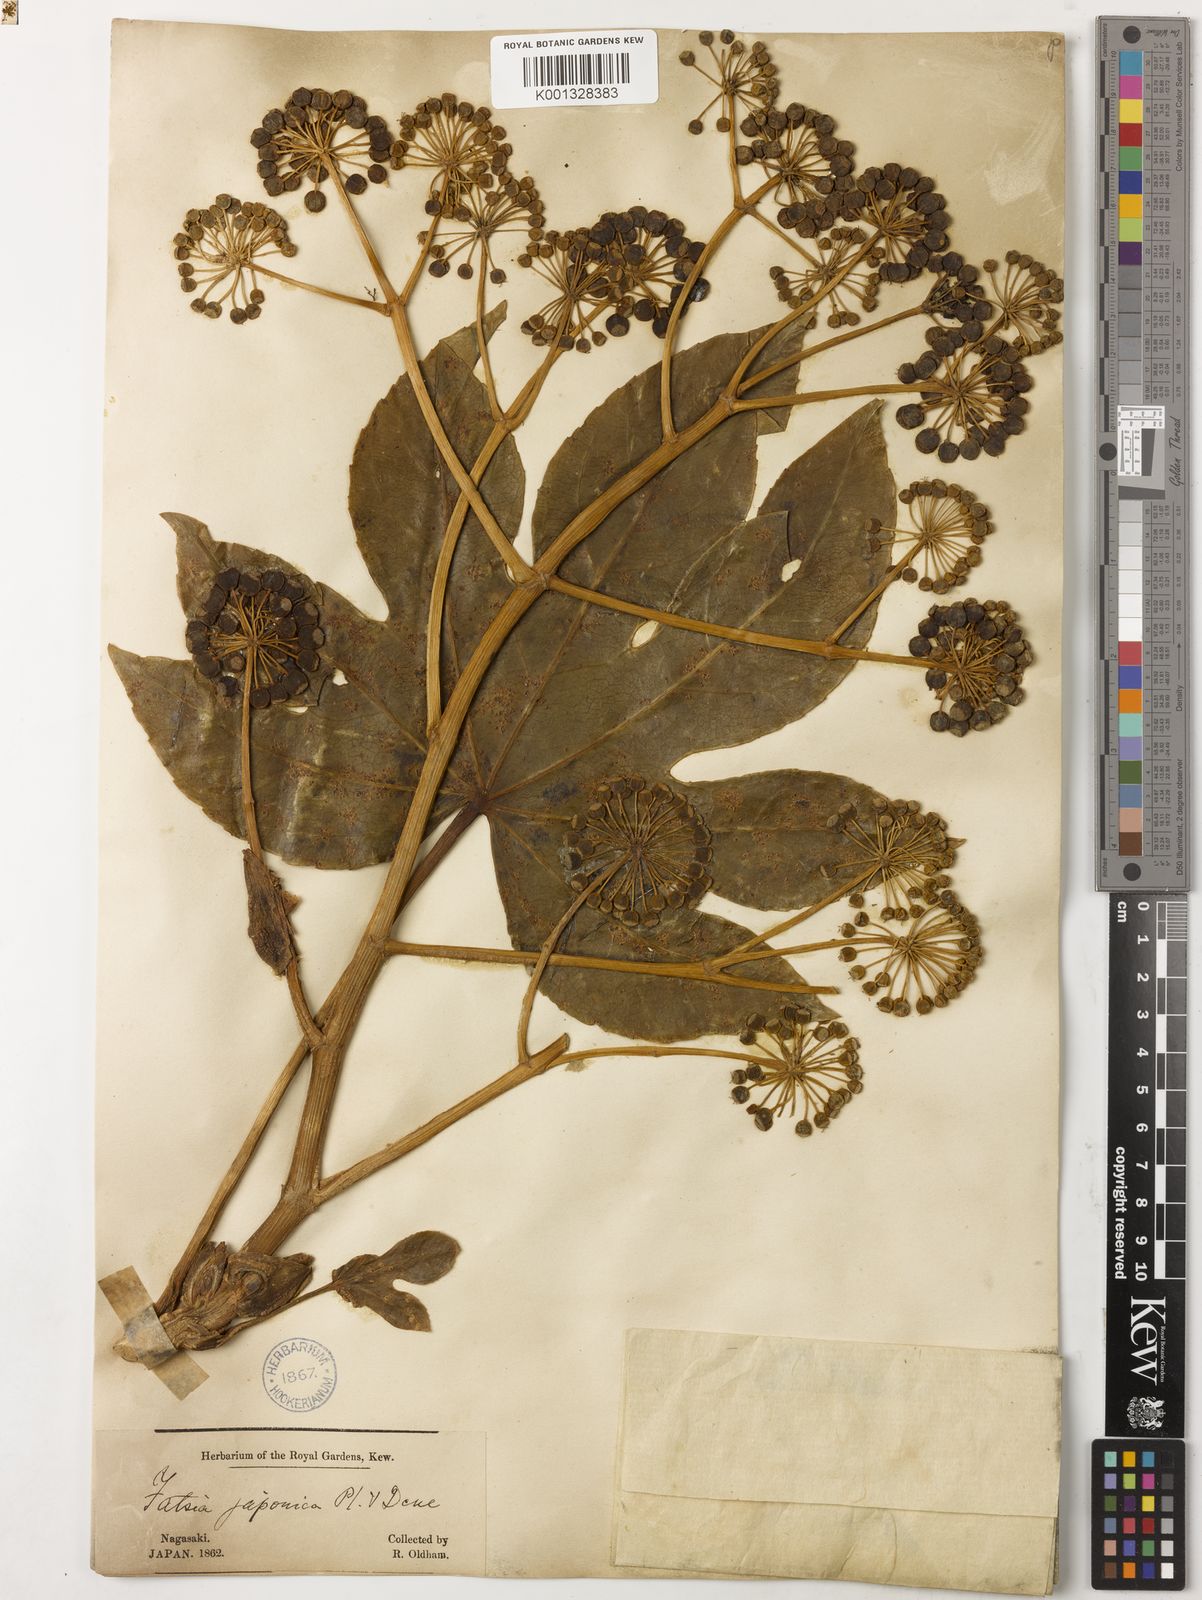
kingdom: Plantae
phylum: Tracheophyta
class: Magnoliopsida
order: Apiales
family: Araliaceae
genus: Fatsia
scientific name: Fatsia japonica
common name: Fatsia
